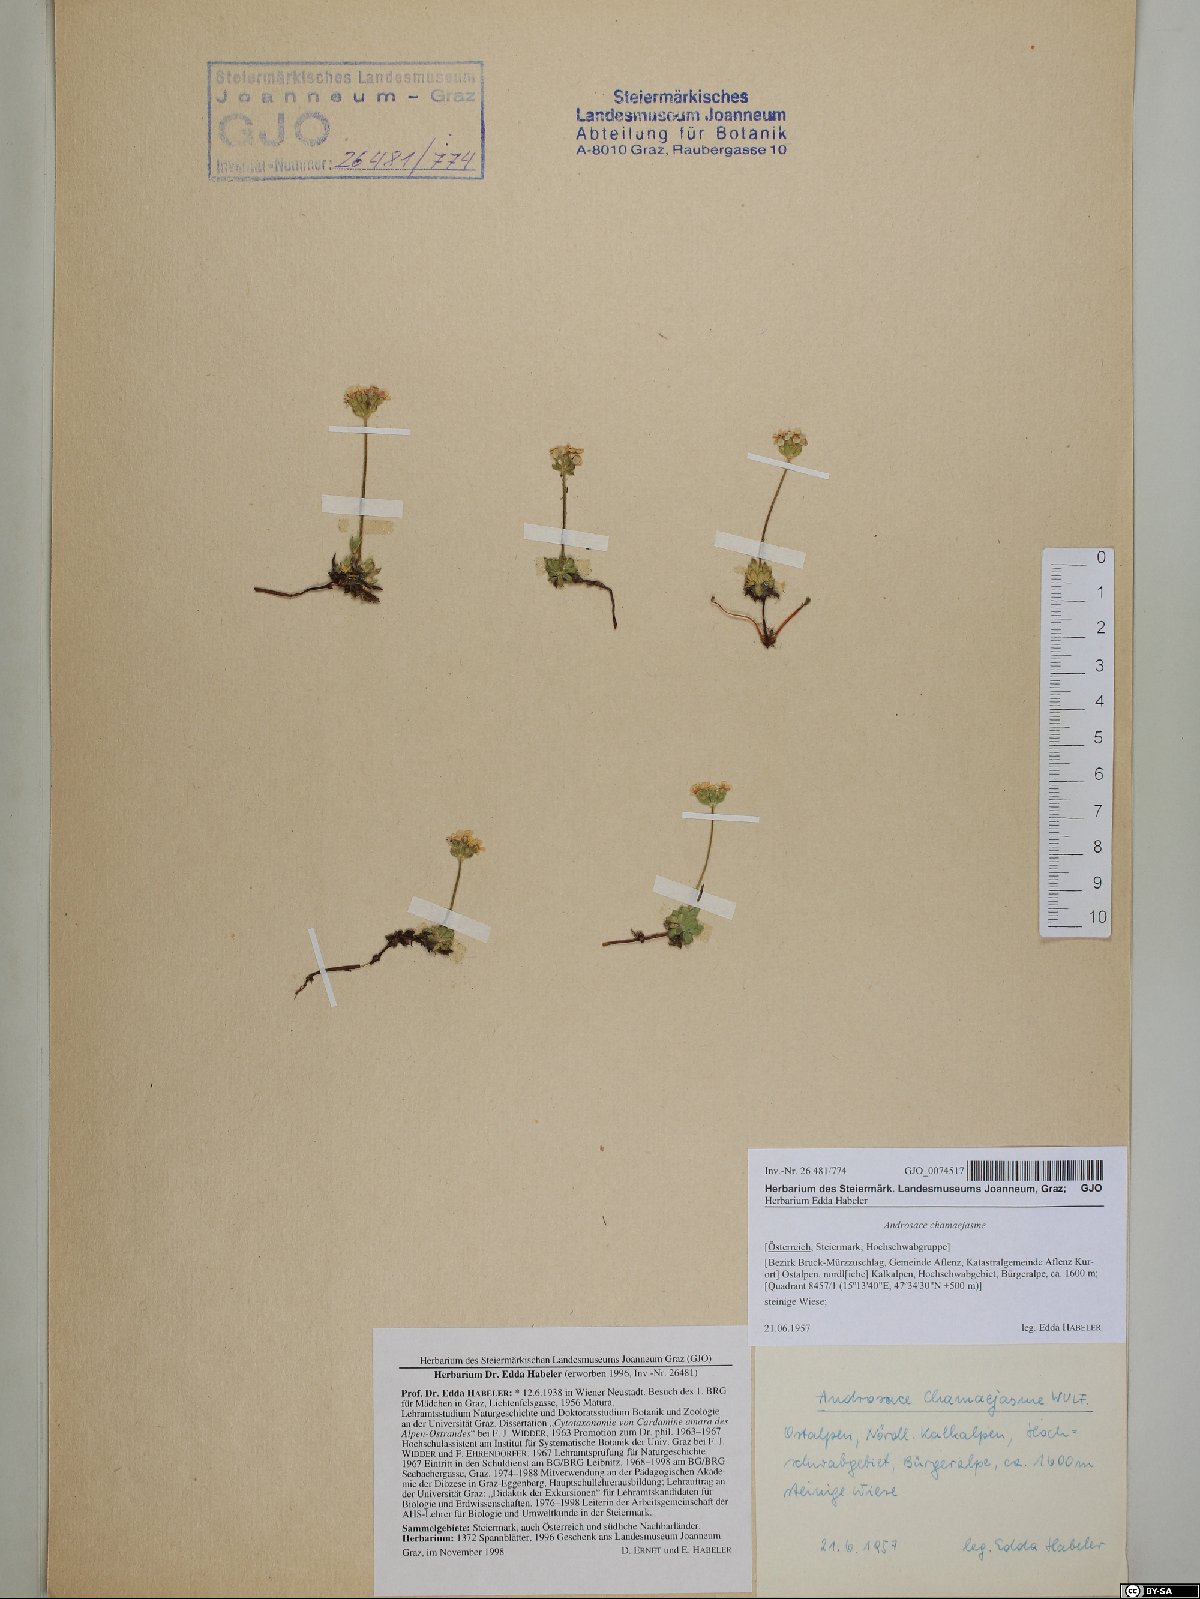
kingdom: Plantae
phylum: Tracheophyta
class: Magnoliopsida
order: Ericales
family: Primulaceae
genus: Androsace
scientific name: Androsace chamaejasme
